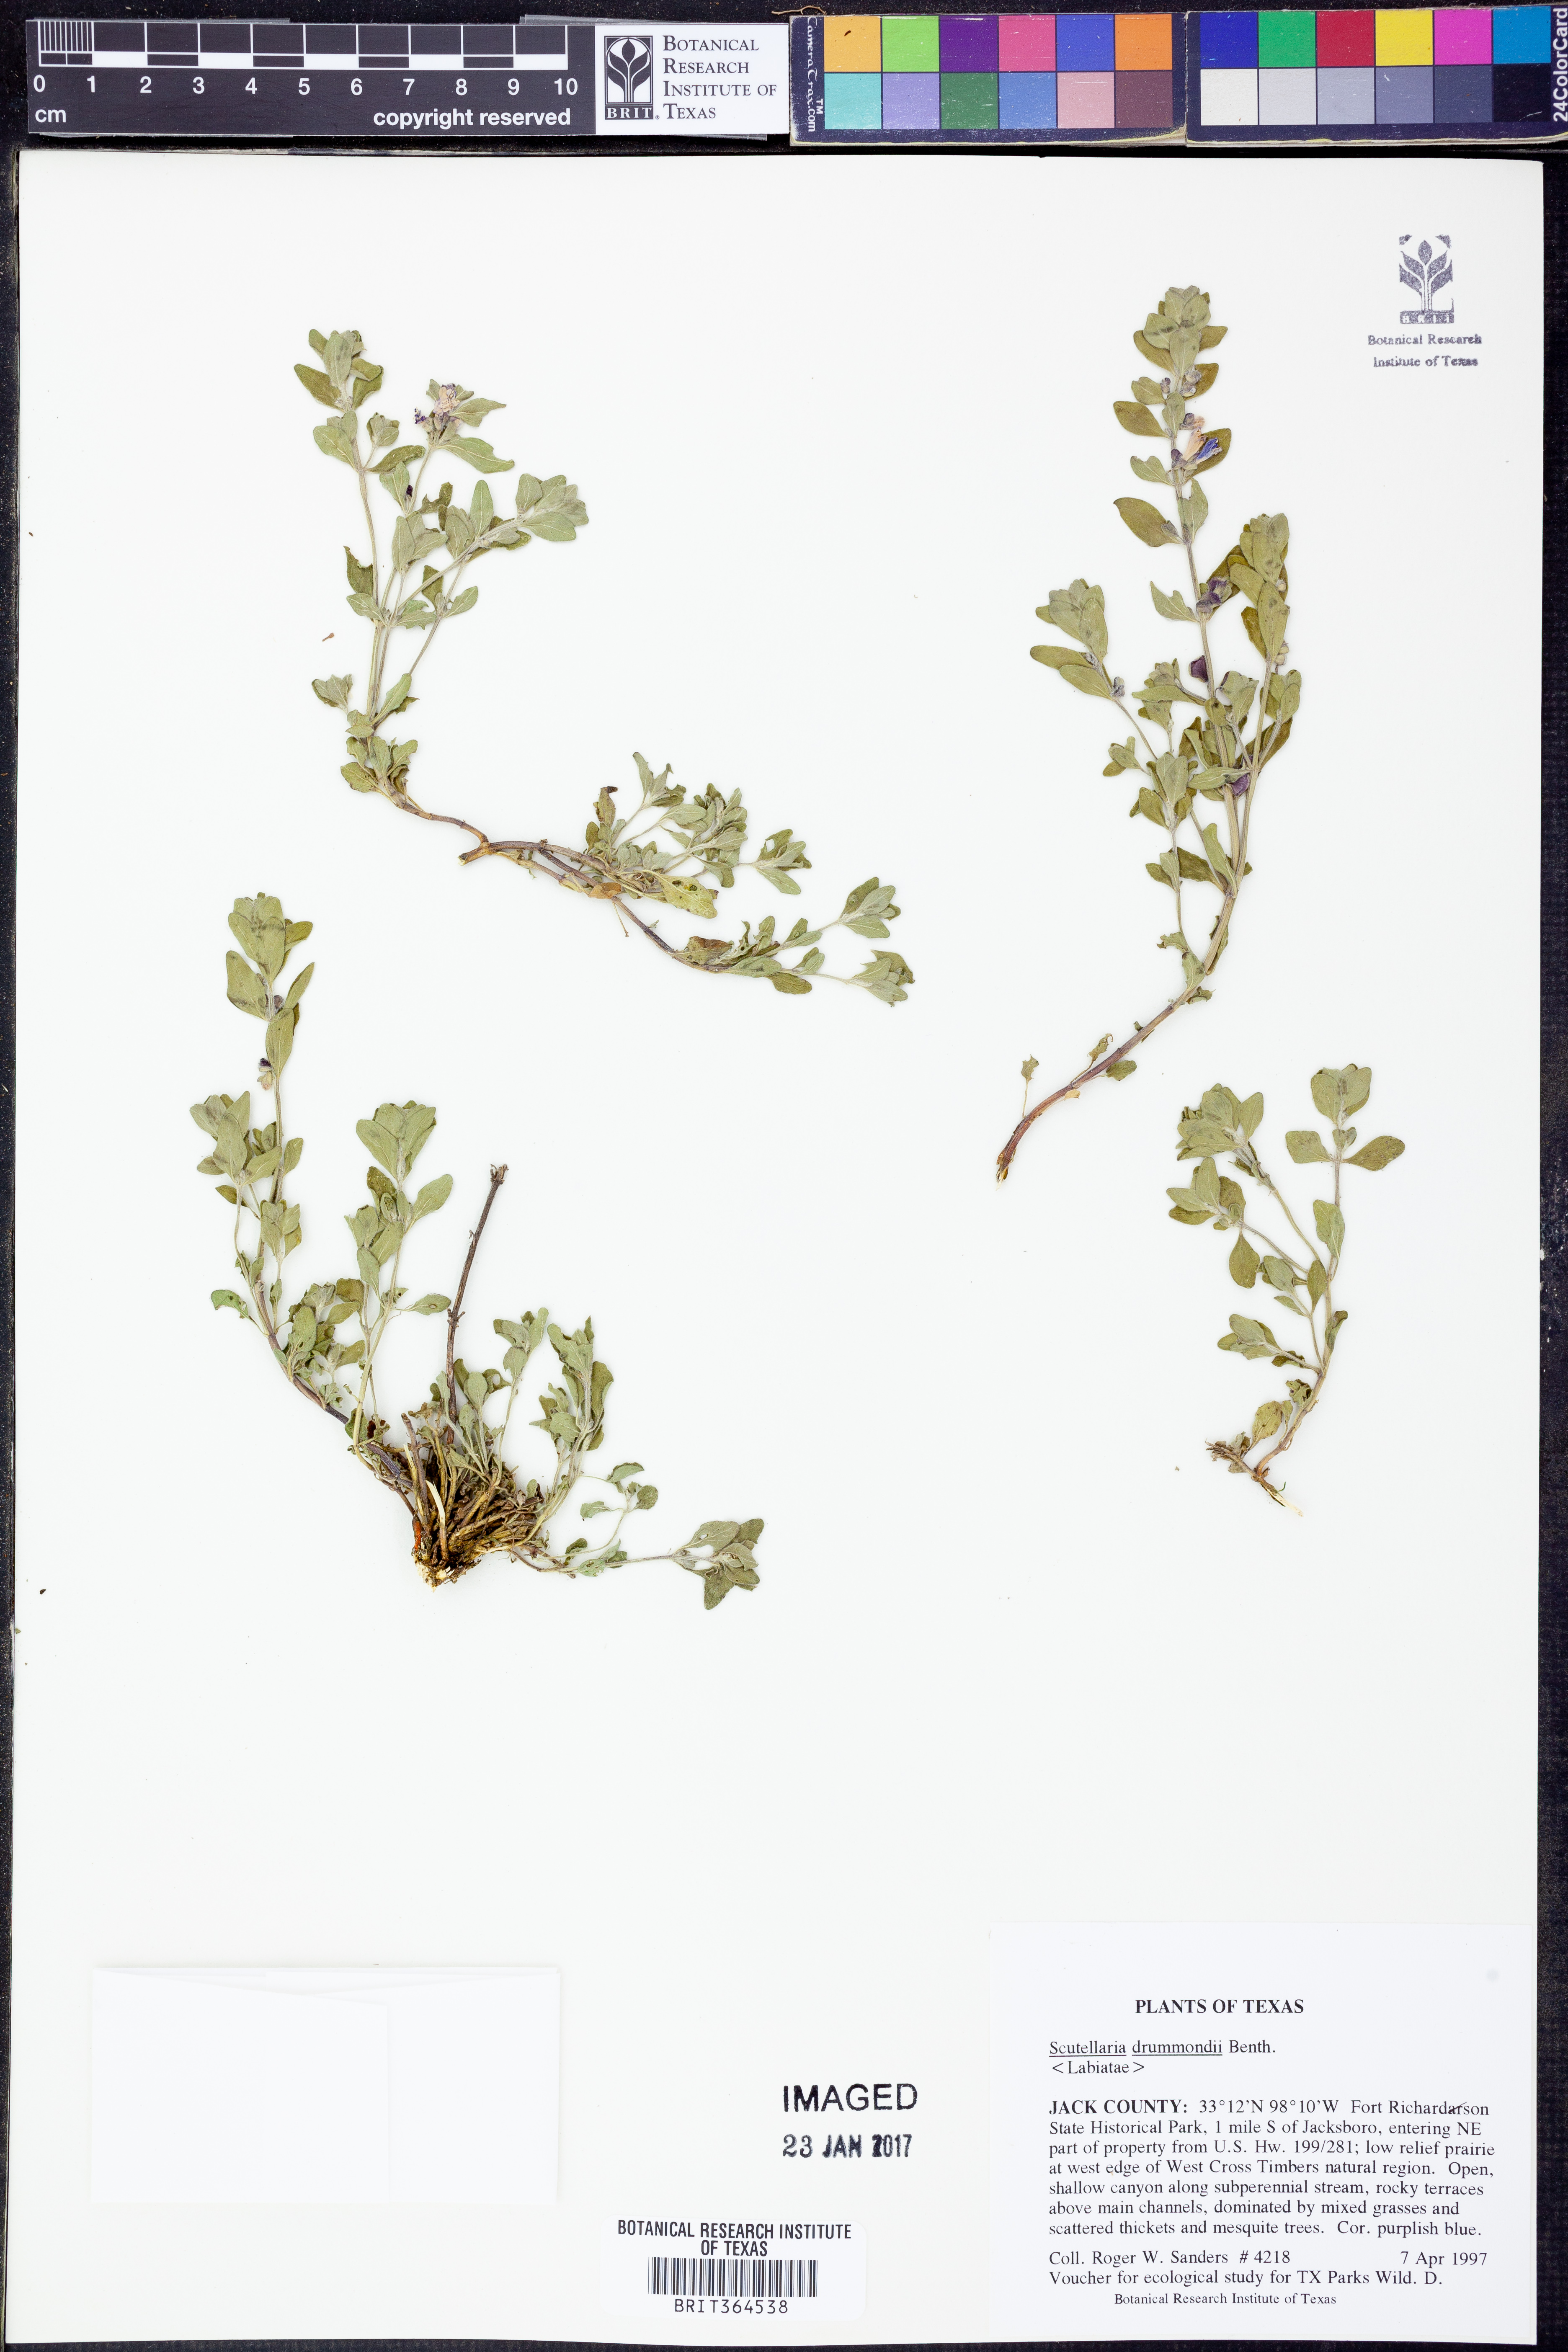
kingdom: Plantae
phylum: Tracheophyta
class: Magnoliopsida
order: Lamiales
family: Lamiaceae
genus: Scutellaria
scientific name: Scutellaria drummondii
